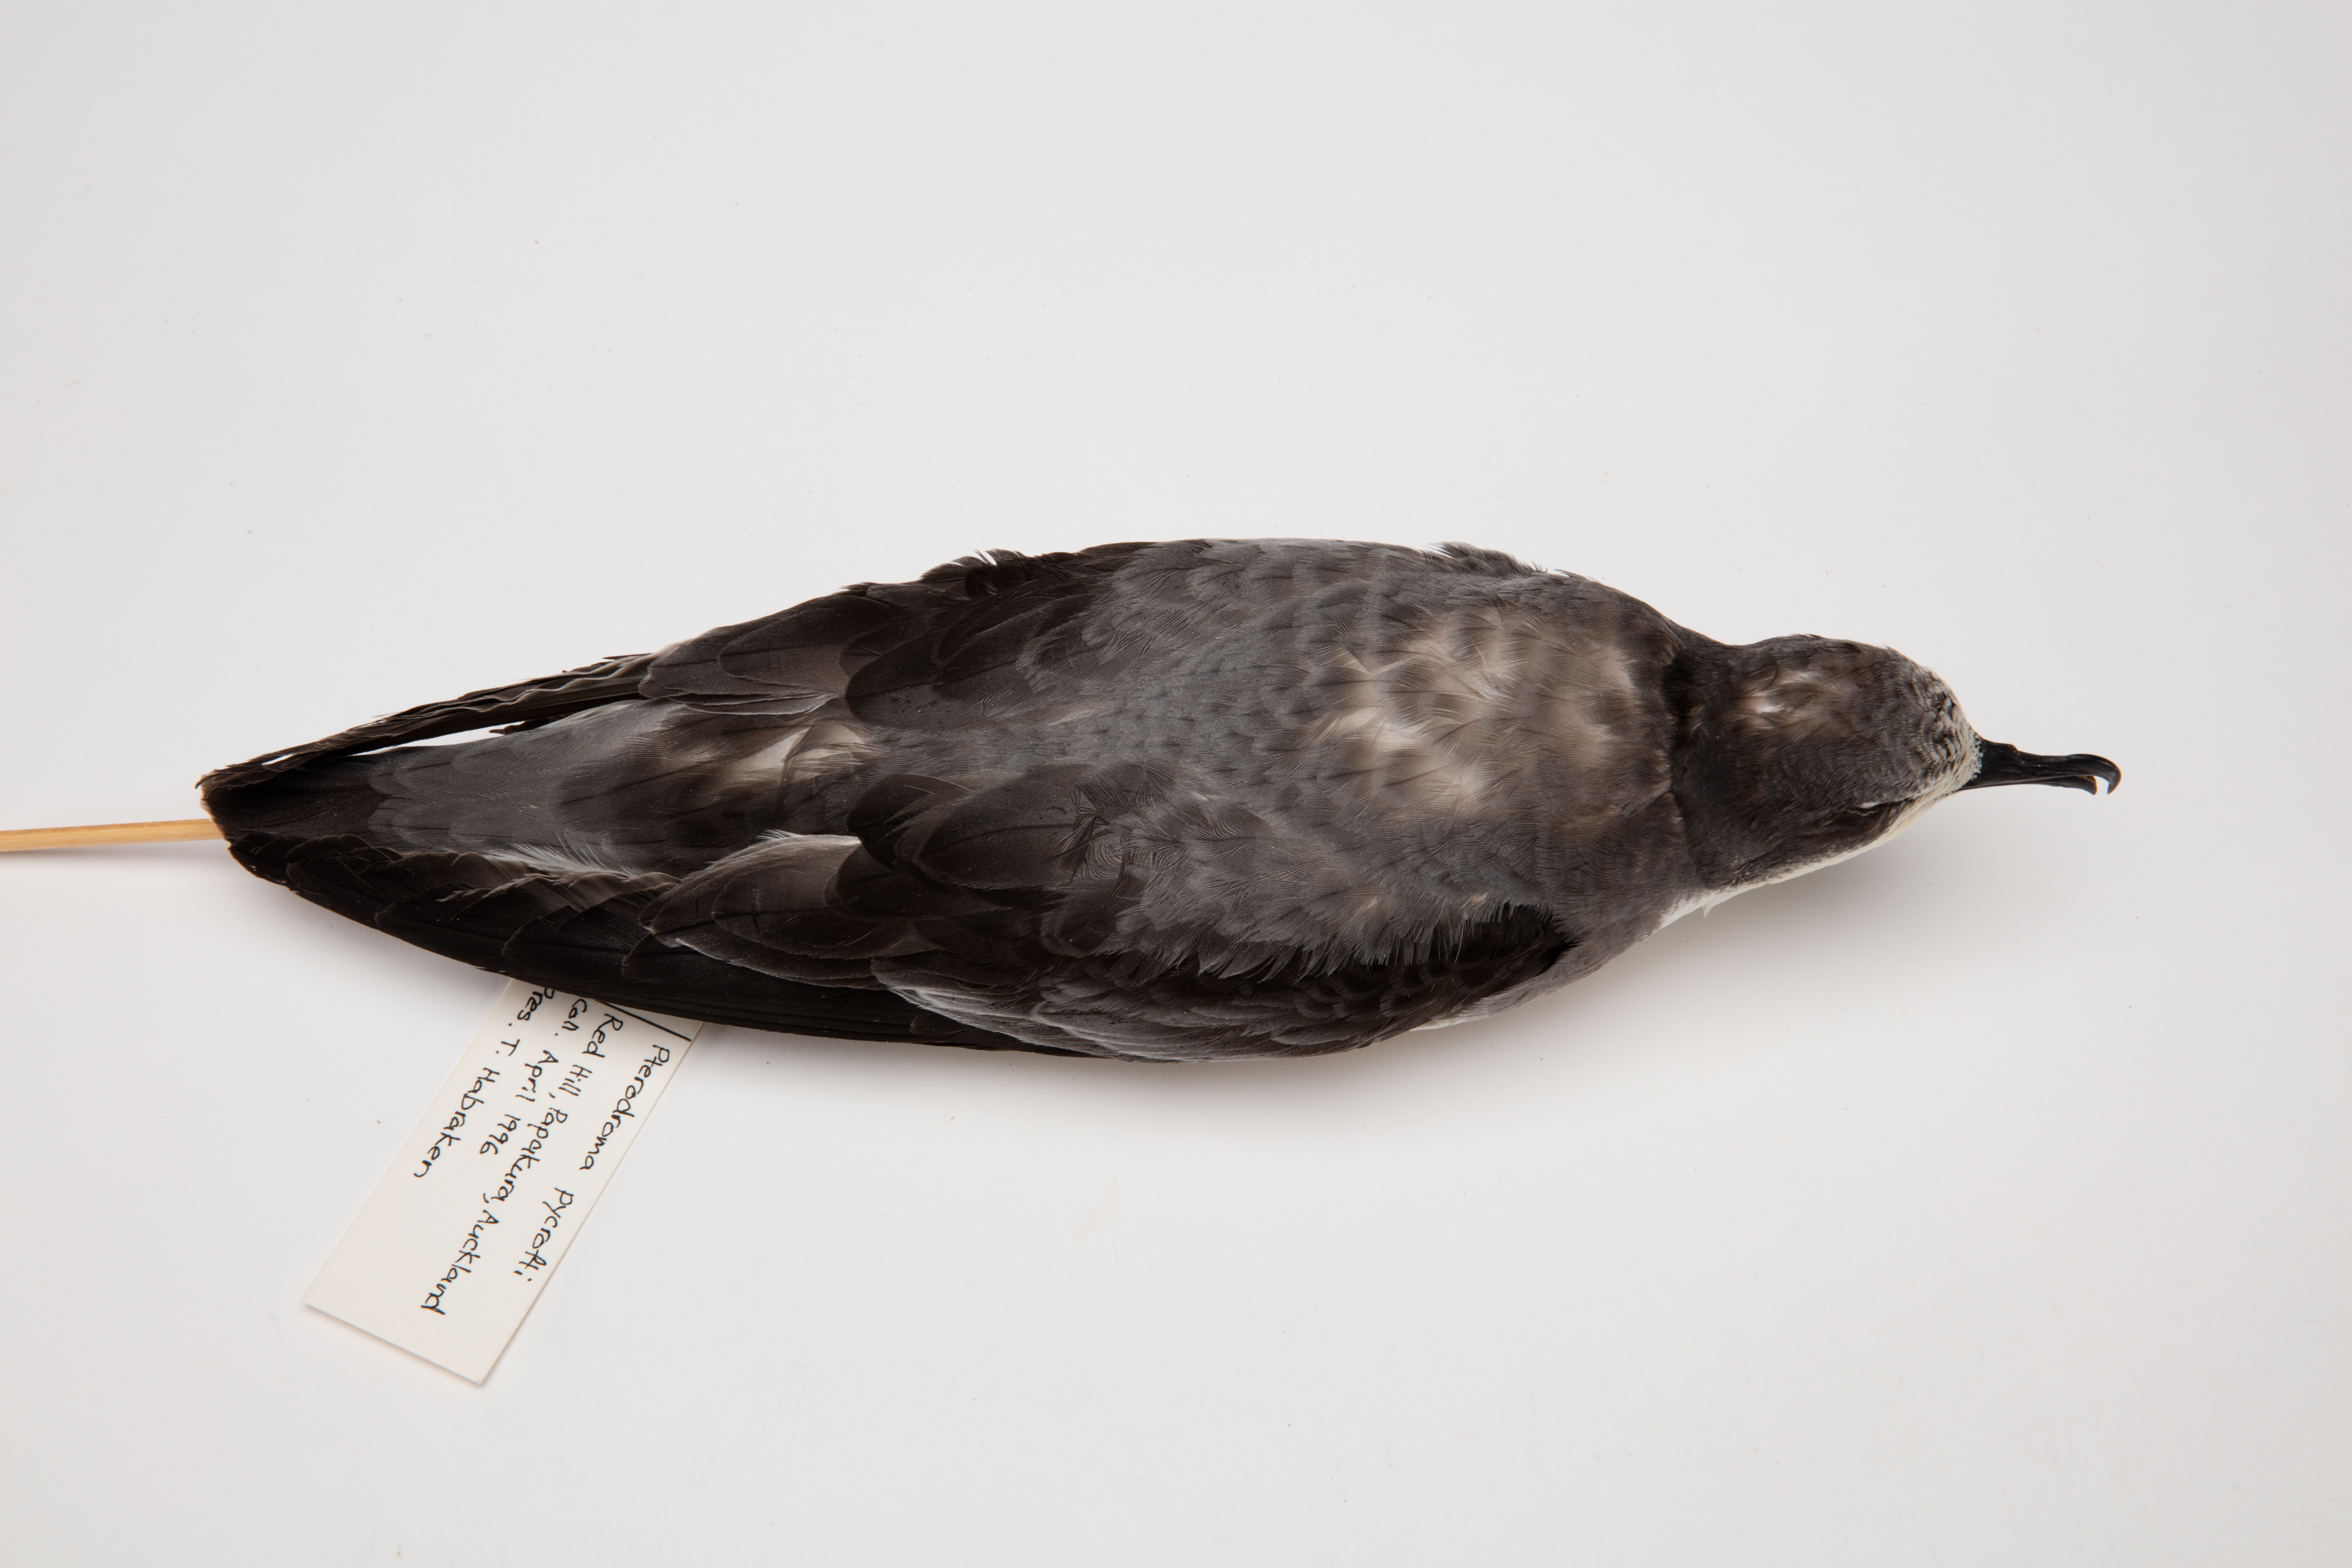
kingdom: Animalia
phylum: Chordata
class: Aves
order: Procellariiformes
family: Procellariidae
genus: Pterodroma
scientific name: Pterodroma pycrofti
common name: Pycroft's petrel
